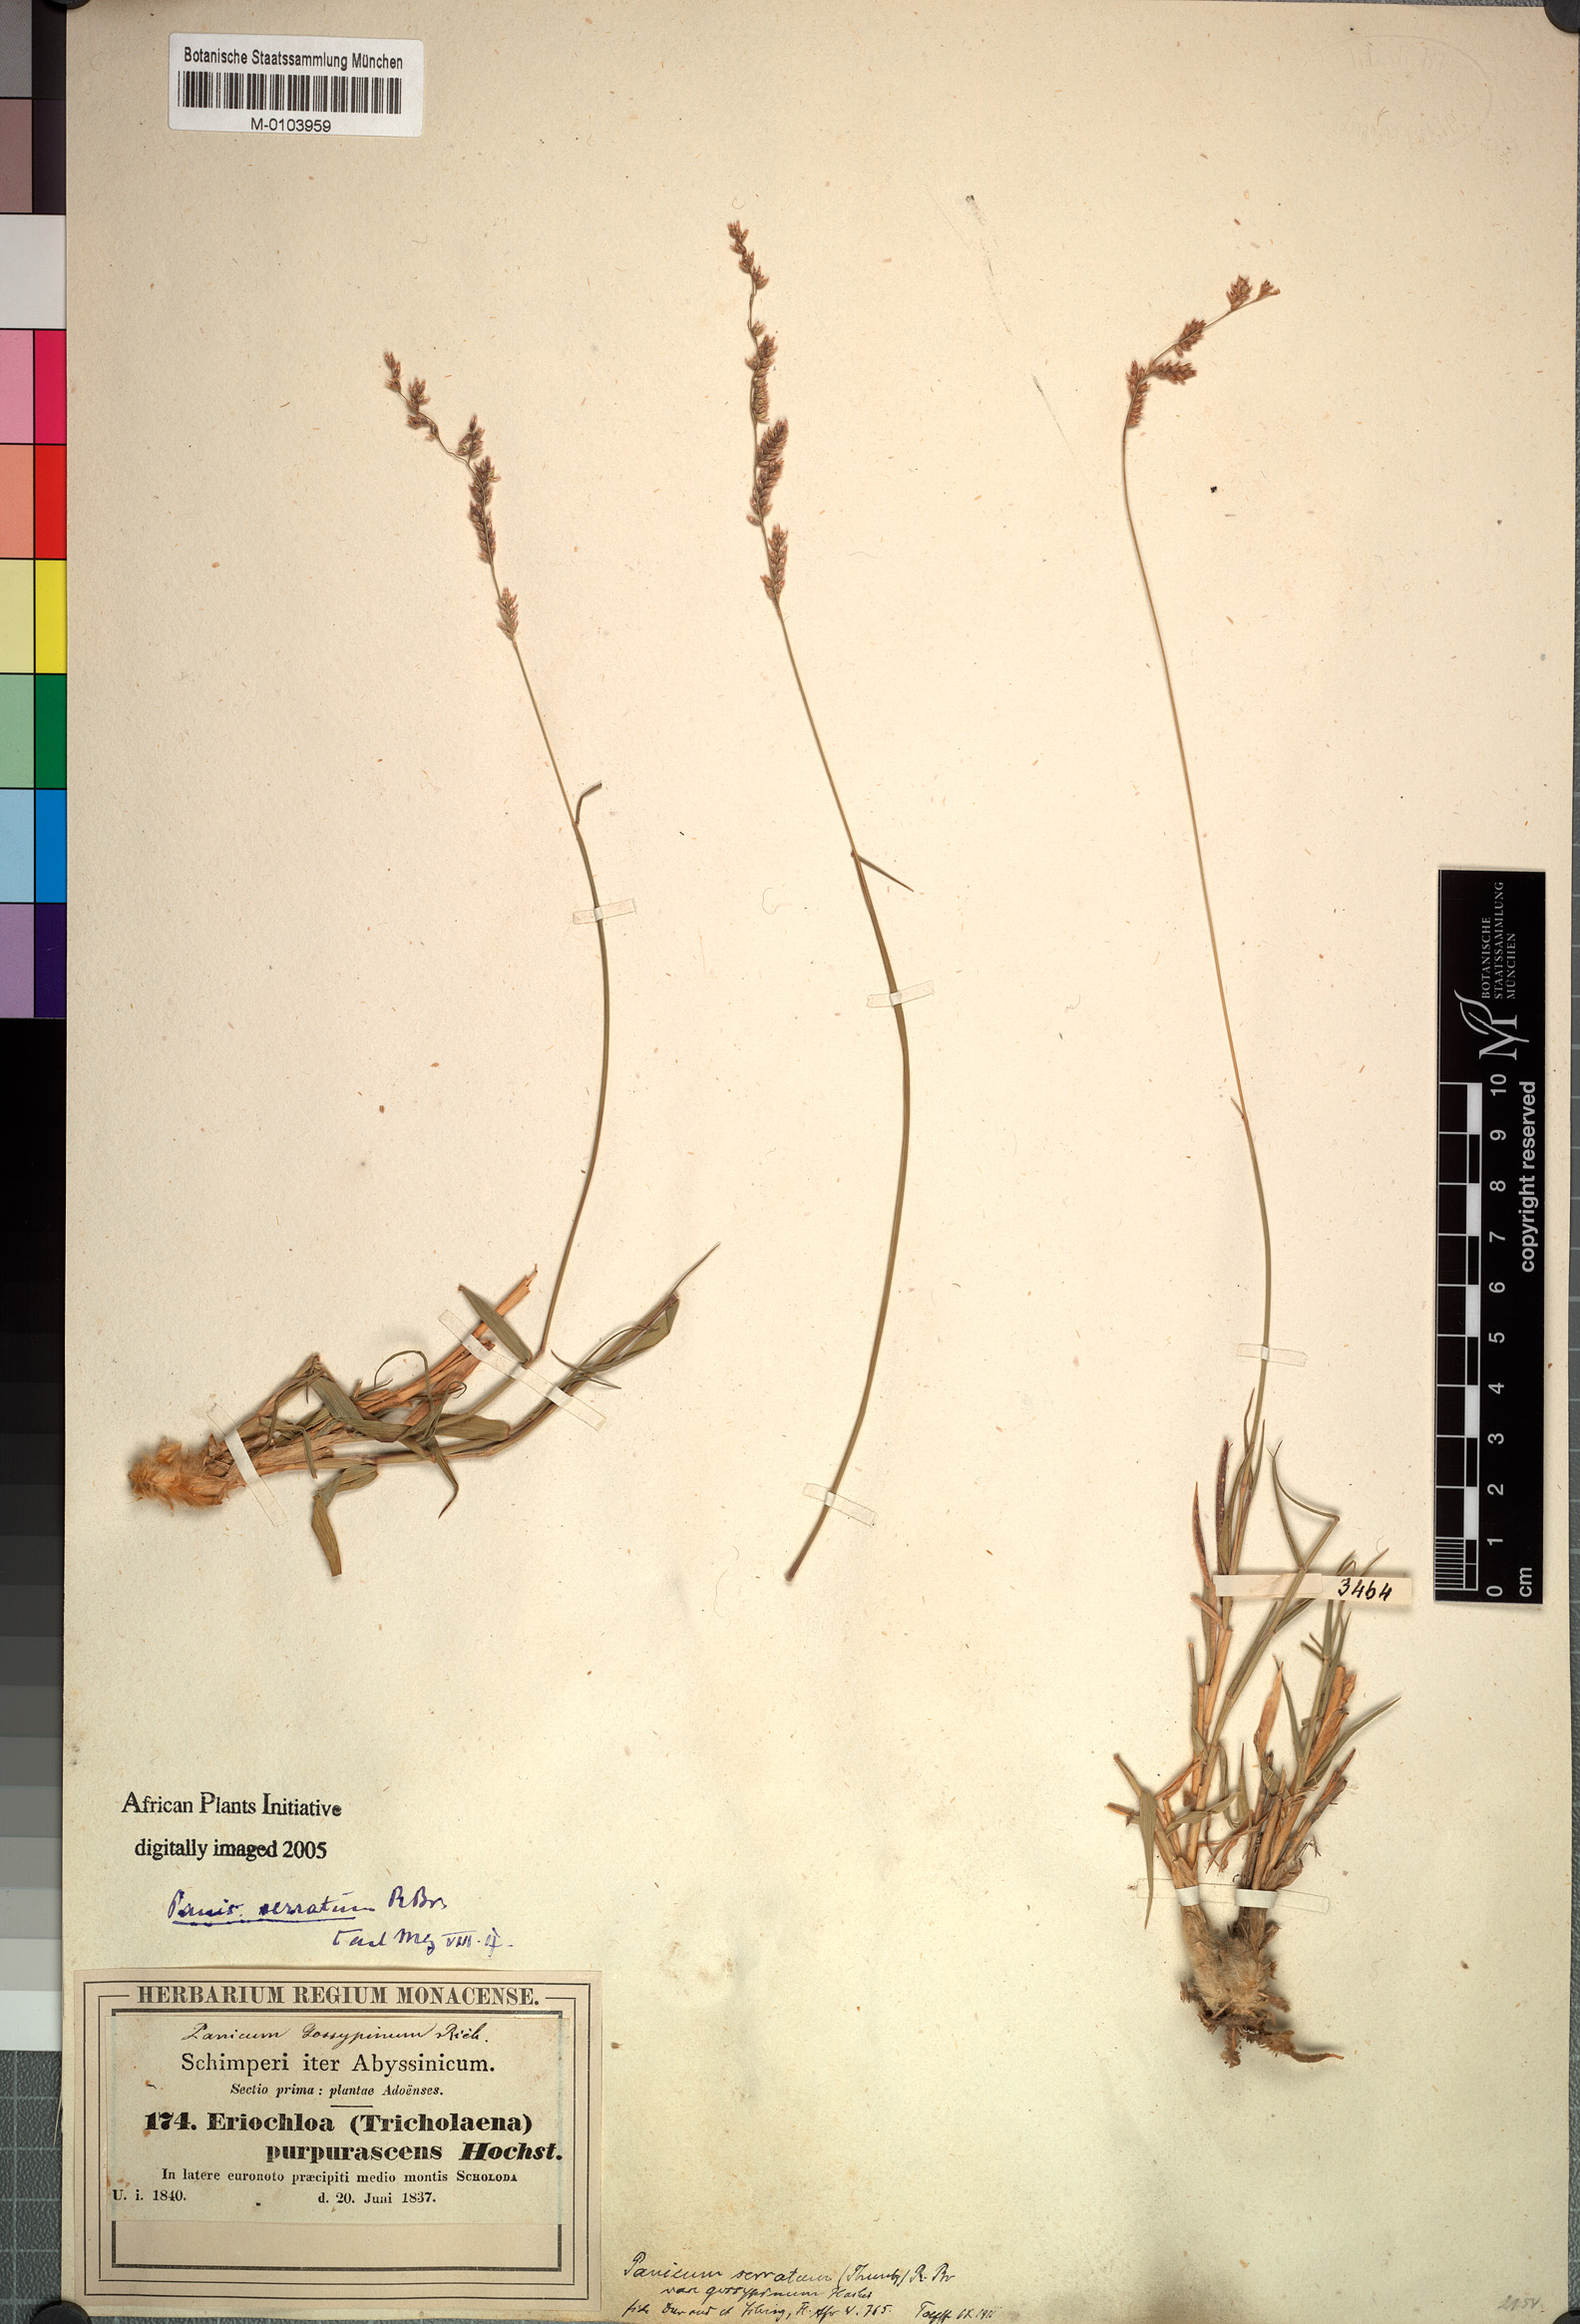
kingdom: Plantae
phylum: Tracheophyta
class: Liliopsida
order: Poales
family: Poaceae
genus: Urochloa
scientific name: Urochloa serrata
